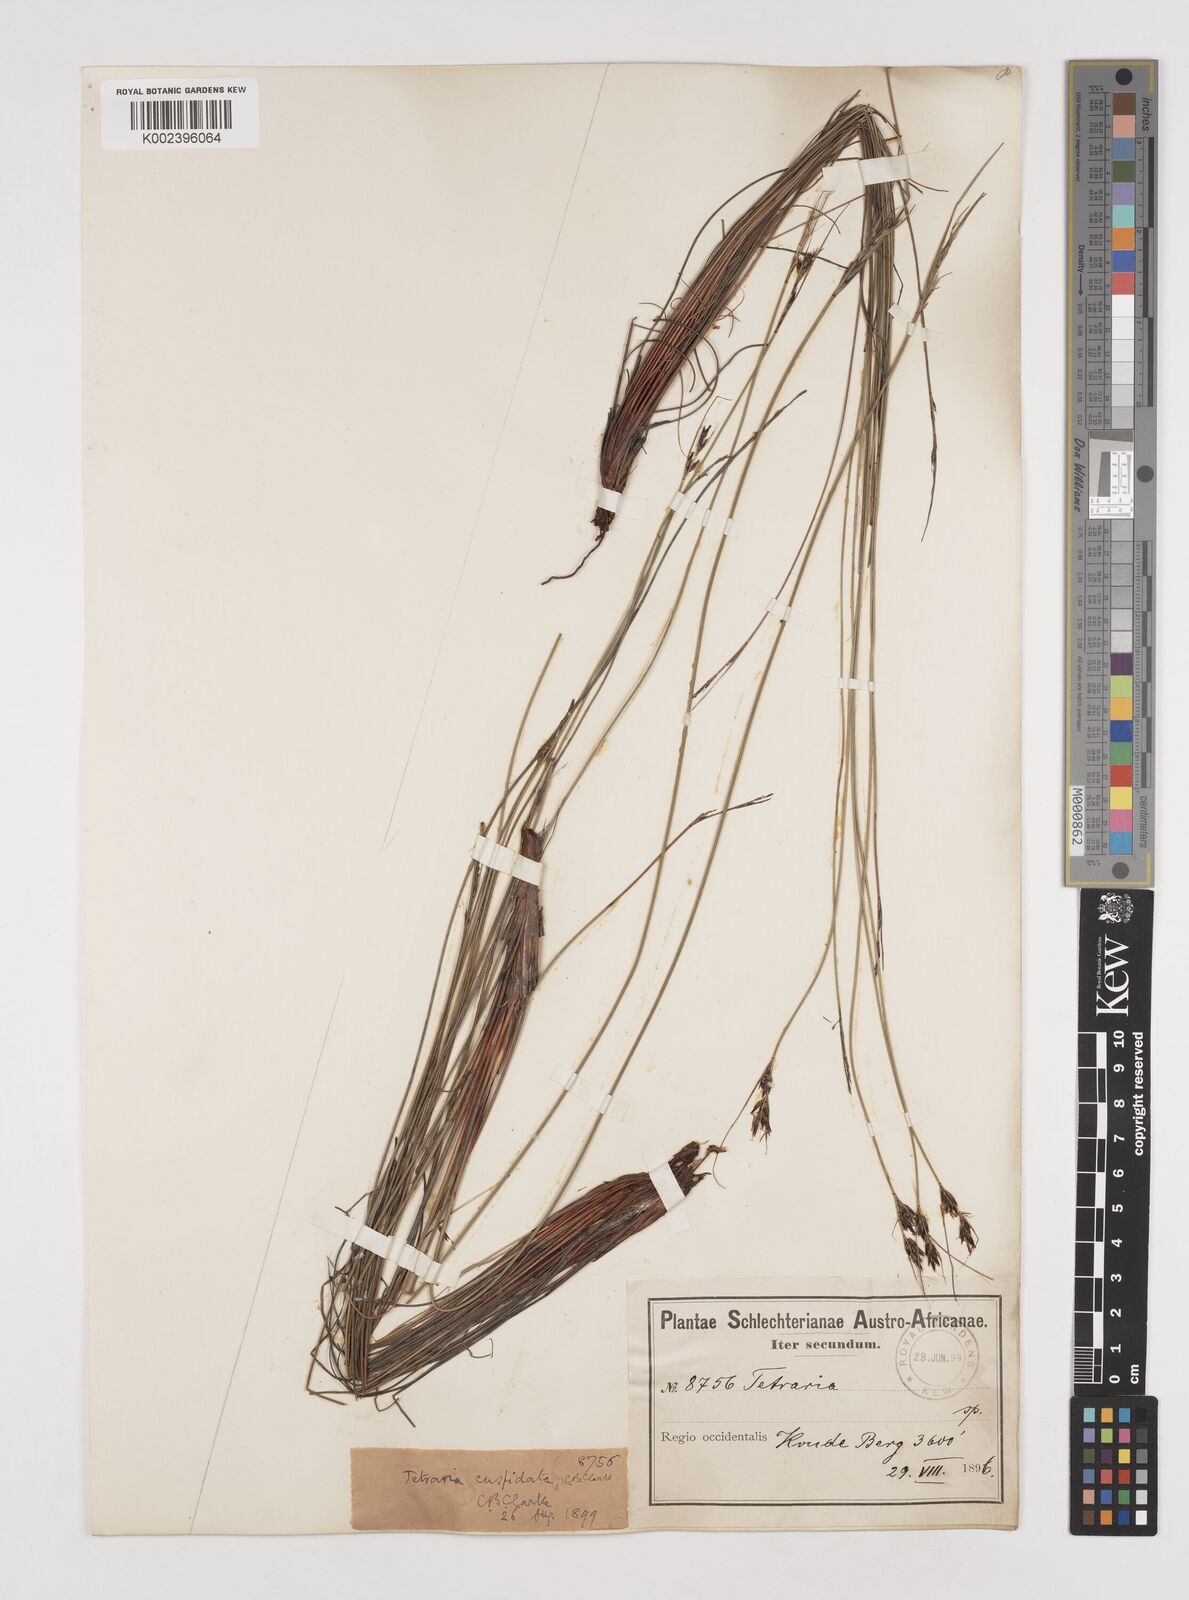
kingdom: Plantae
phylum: Tracheophyta
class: Liliopsida
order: Poales
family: Cyperaceae
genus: Schoenus
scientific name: Schoenus cuspidatus
